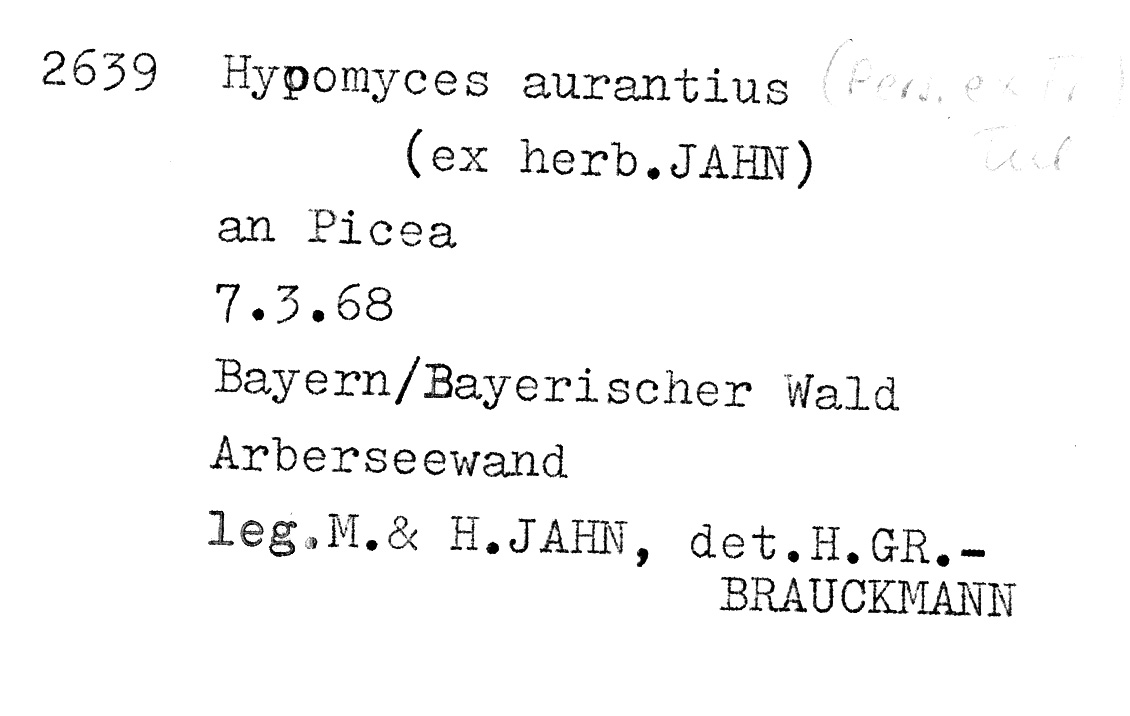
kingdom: Plantae
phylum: Tracheophyta
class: Pinopsida
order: Pinales
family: Pinaceae
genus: Picea
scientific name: Picea
